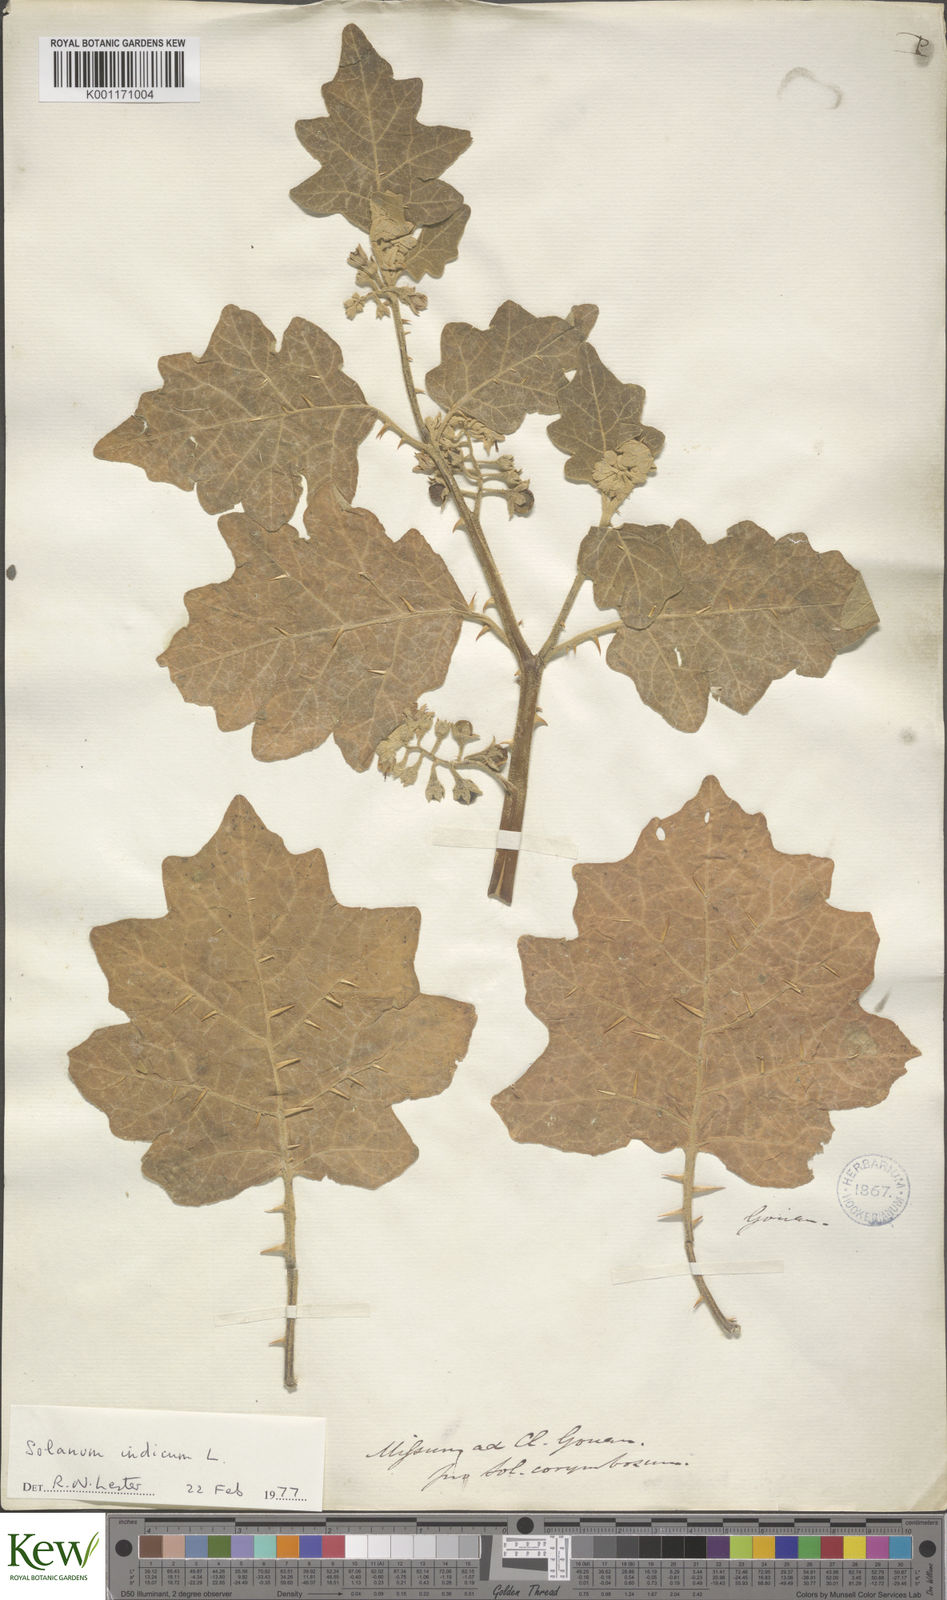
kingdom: Plantae
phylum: Tracheophyta
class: Magnoliopsida
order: Solanales
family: Solanaceae
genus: Solanum
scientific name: Solanum
